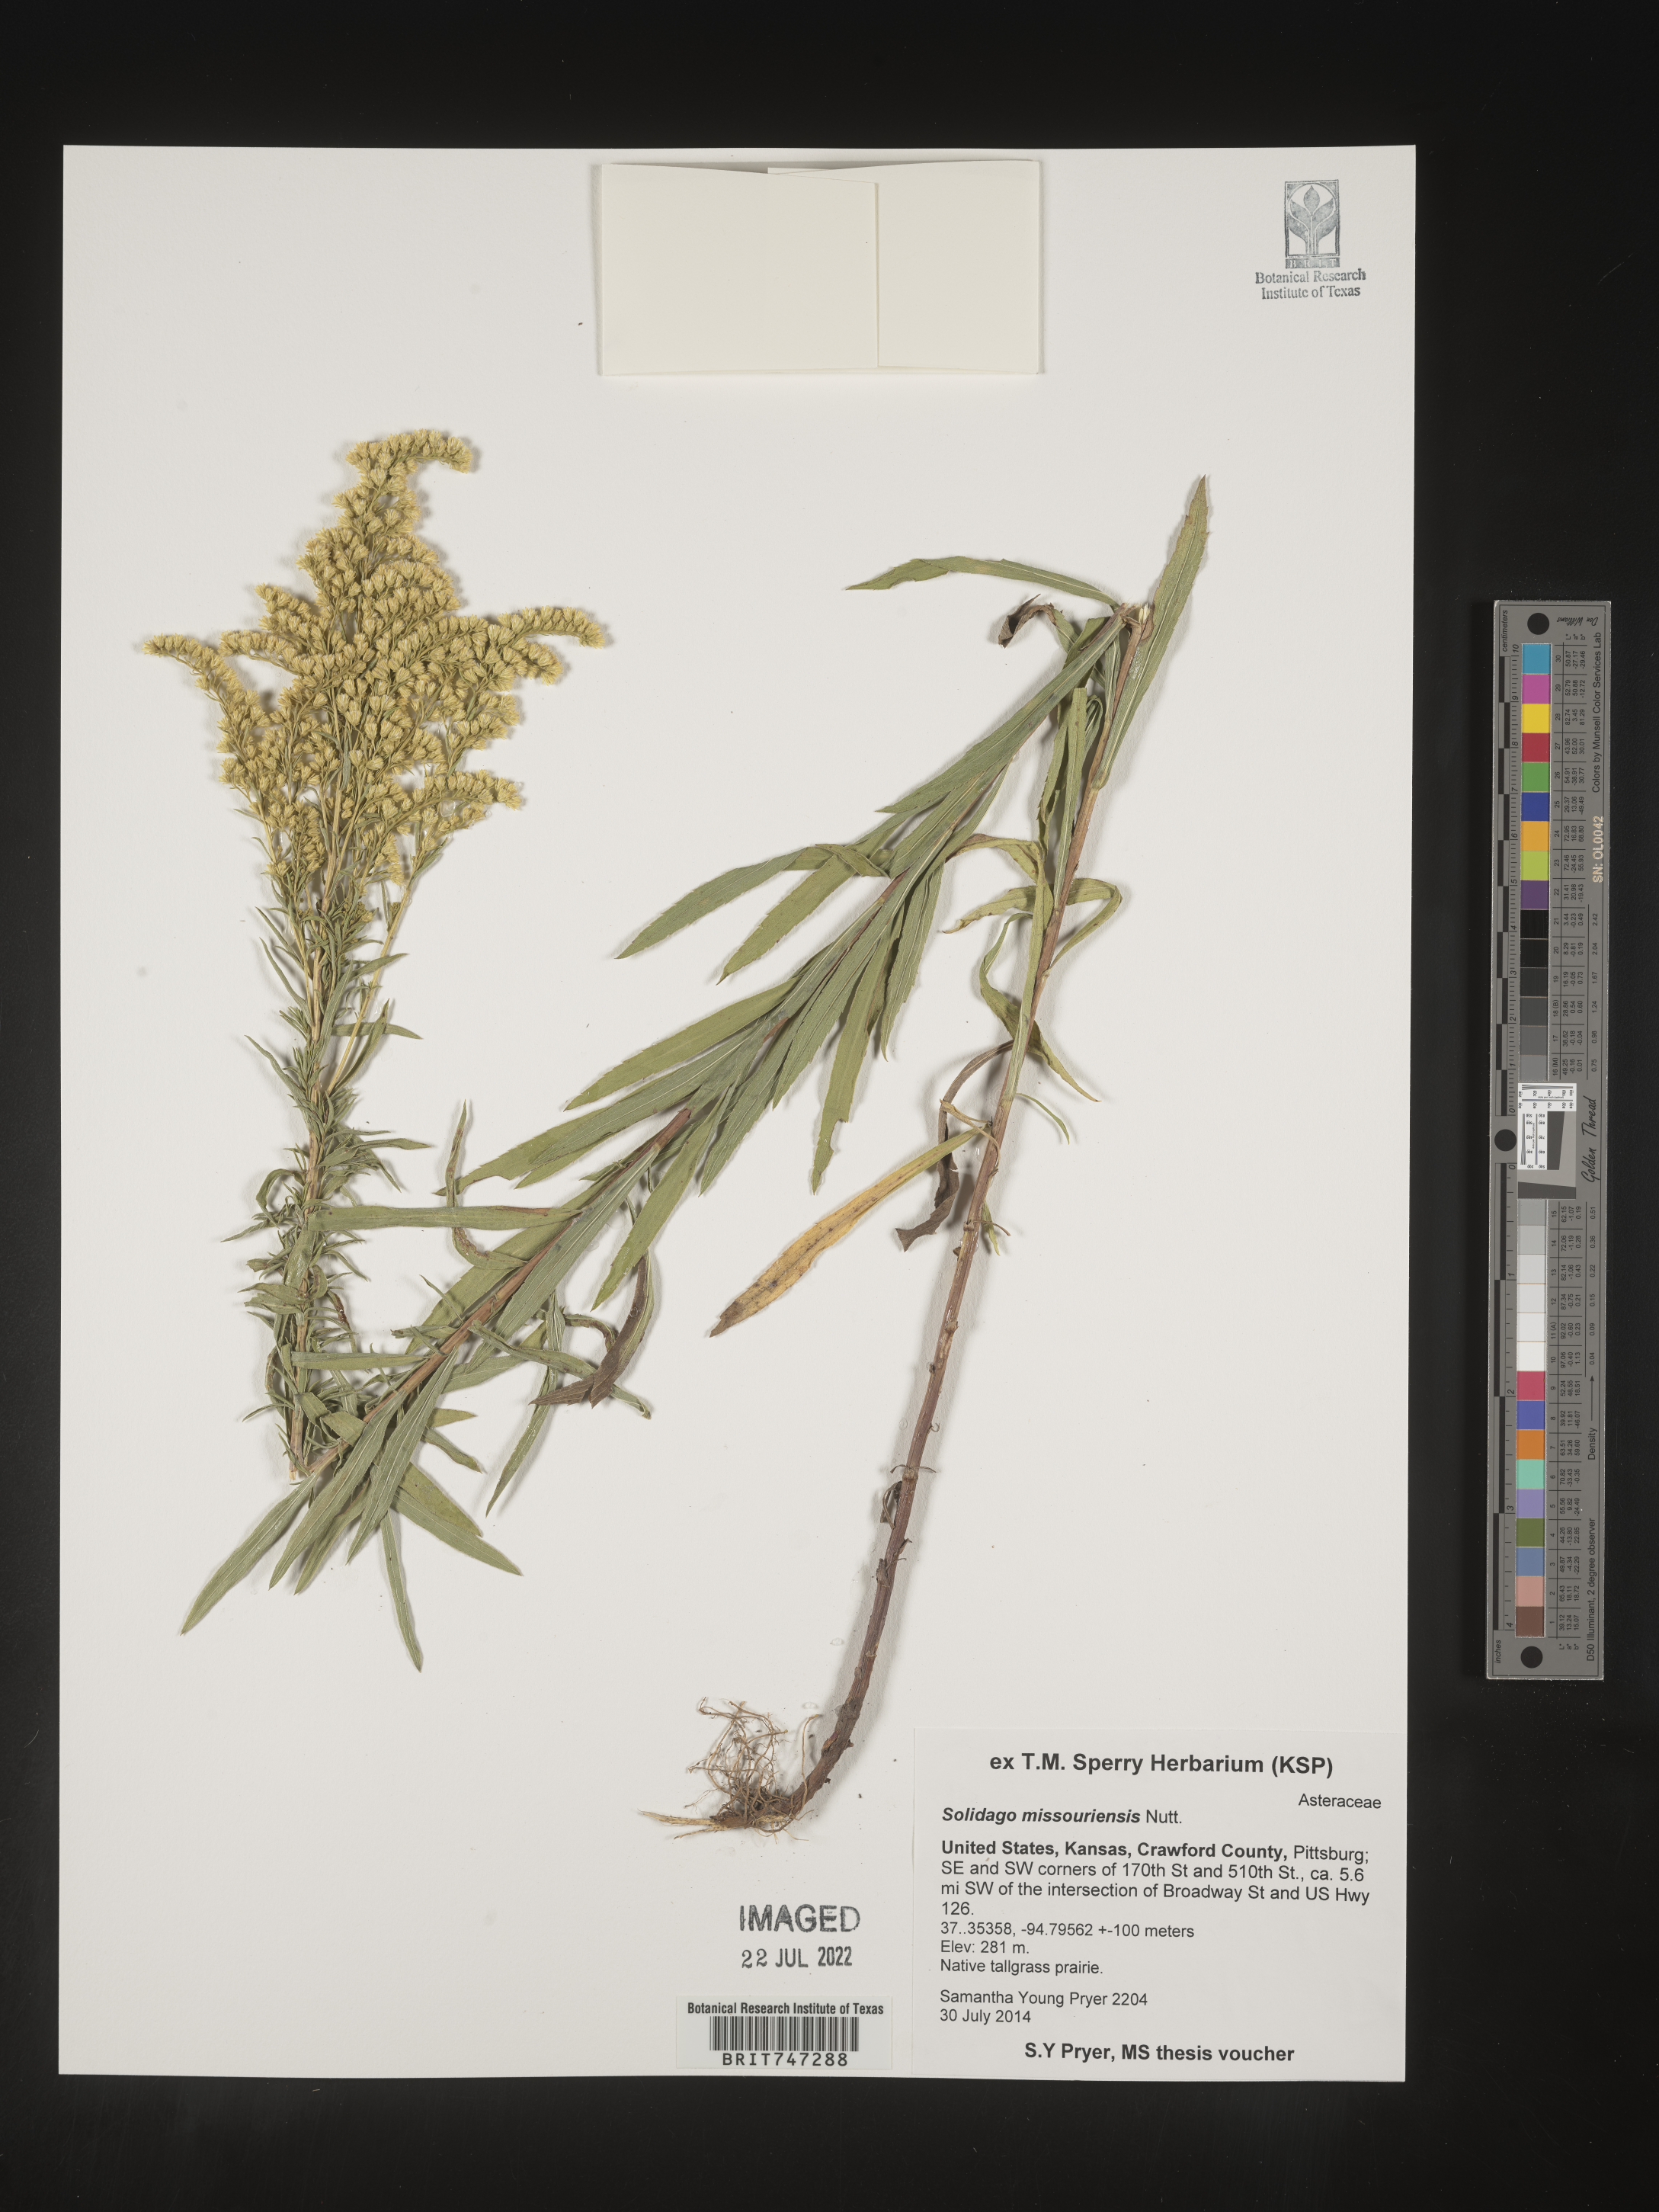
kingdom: Plantae
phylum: Tracheophyta
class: Magnoliopsida
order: Asterales
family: Asteraceae
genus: Solidago
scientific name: Solidago missouriensis
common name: Prairie goldenrod
